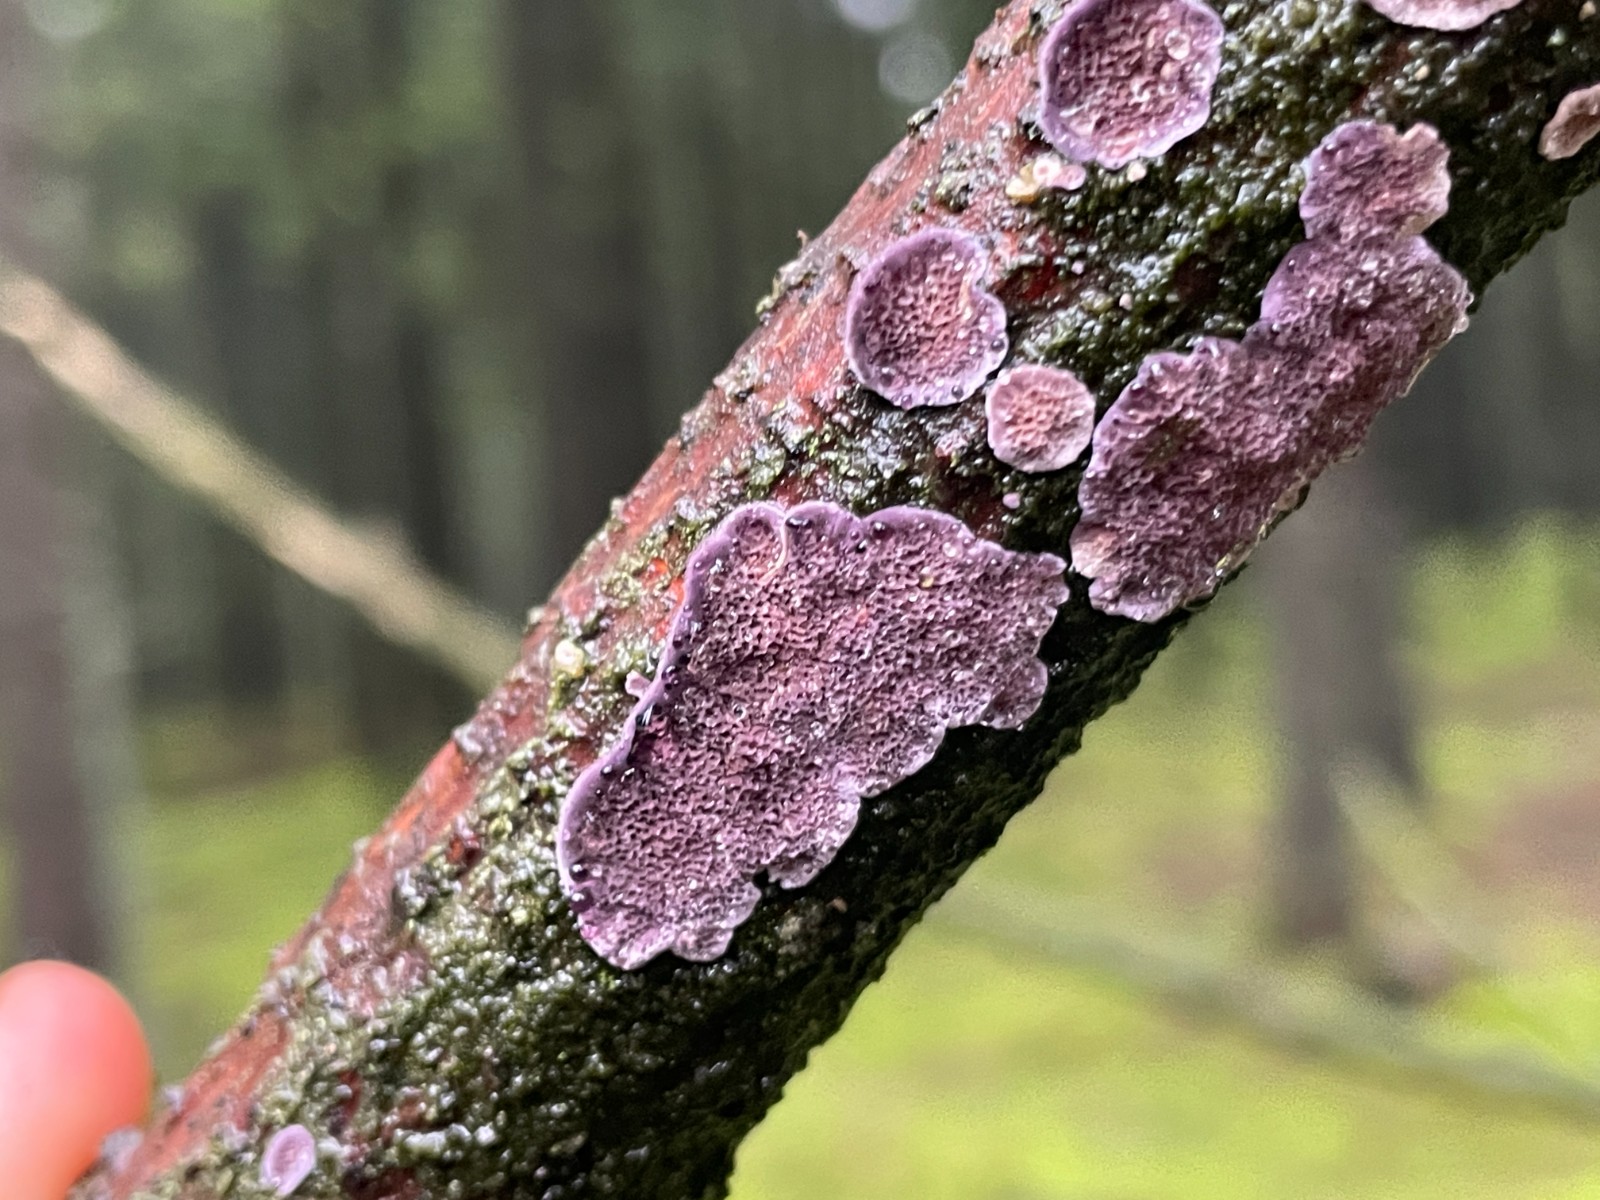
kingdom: Fungi
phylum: Basidiomycota
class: Agaricomycetes
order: Hymenochaetales
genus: Trichaptum
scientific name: Trichaptum abietinum
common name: almindelig violporesvamp
